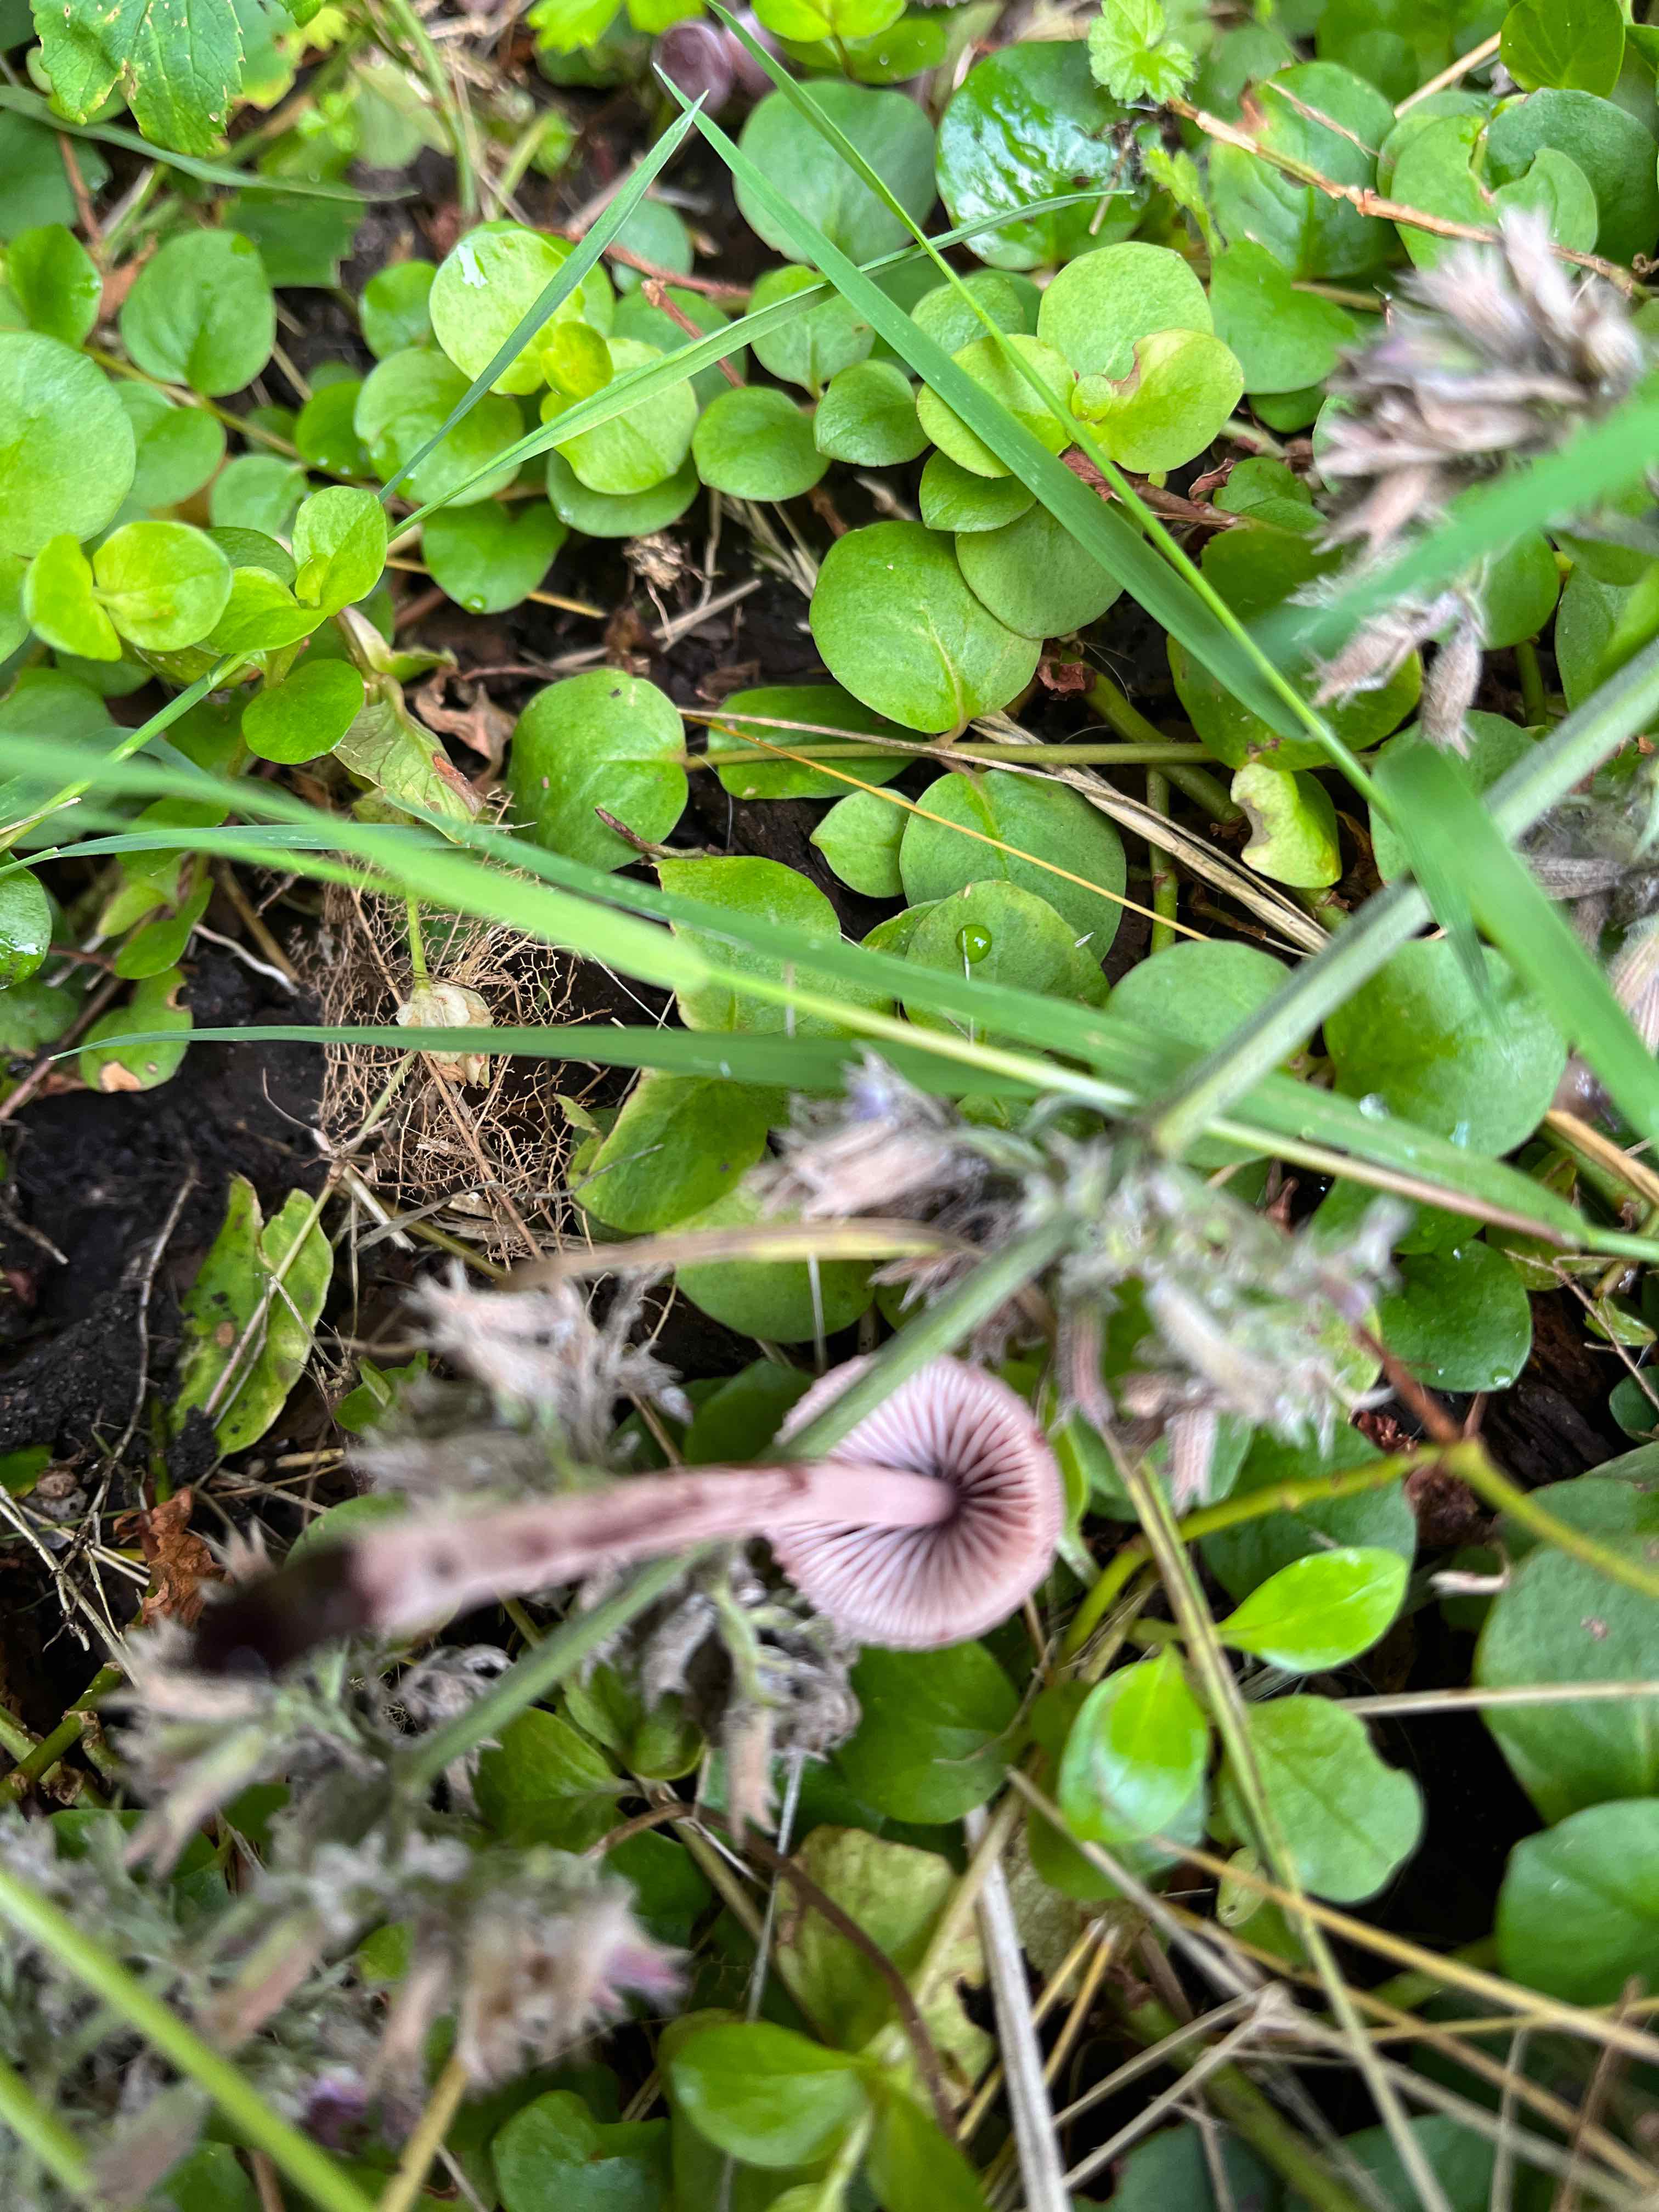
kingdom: Fungi
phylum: Basidiomycota
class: Agaricomycetes
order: Agaricales
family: Mycenaceae
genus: Mycena
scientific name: Mycena haematopus
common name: blødende huesvamp
